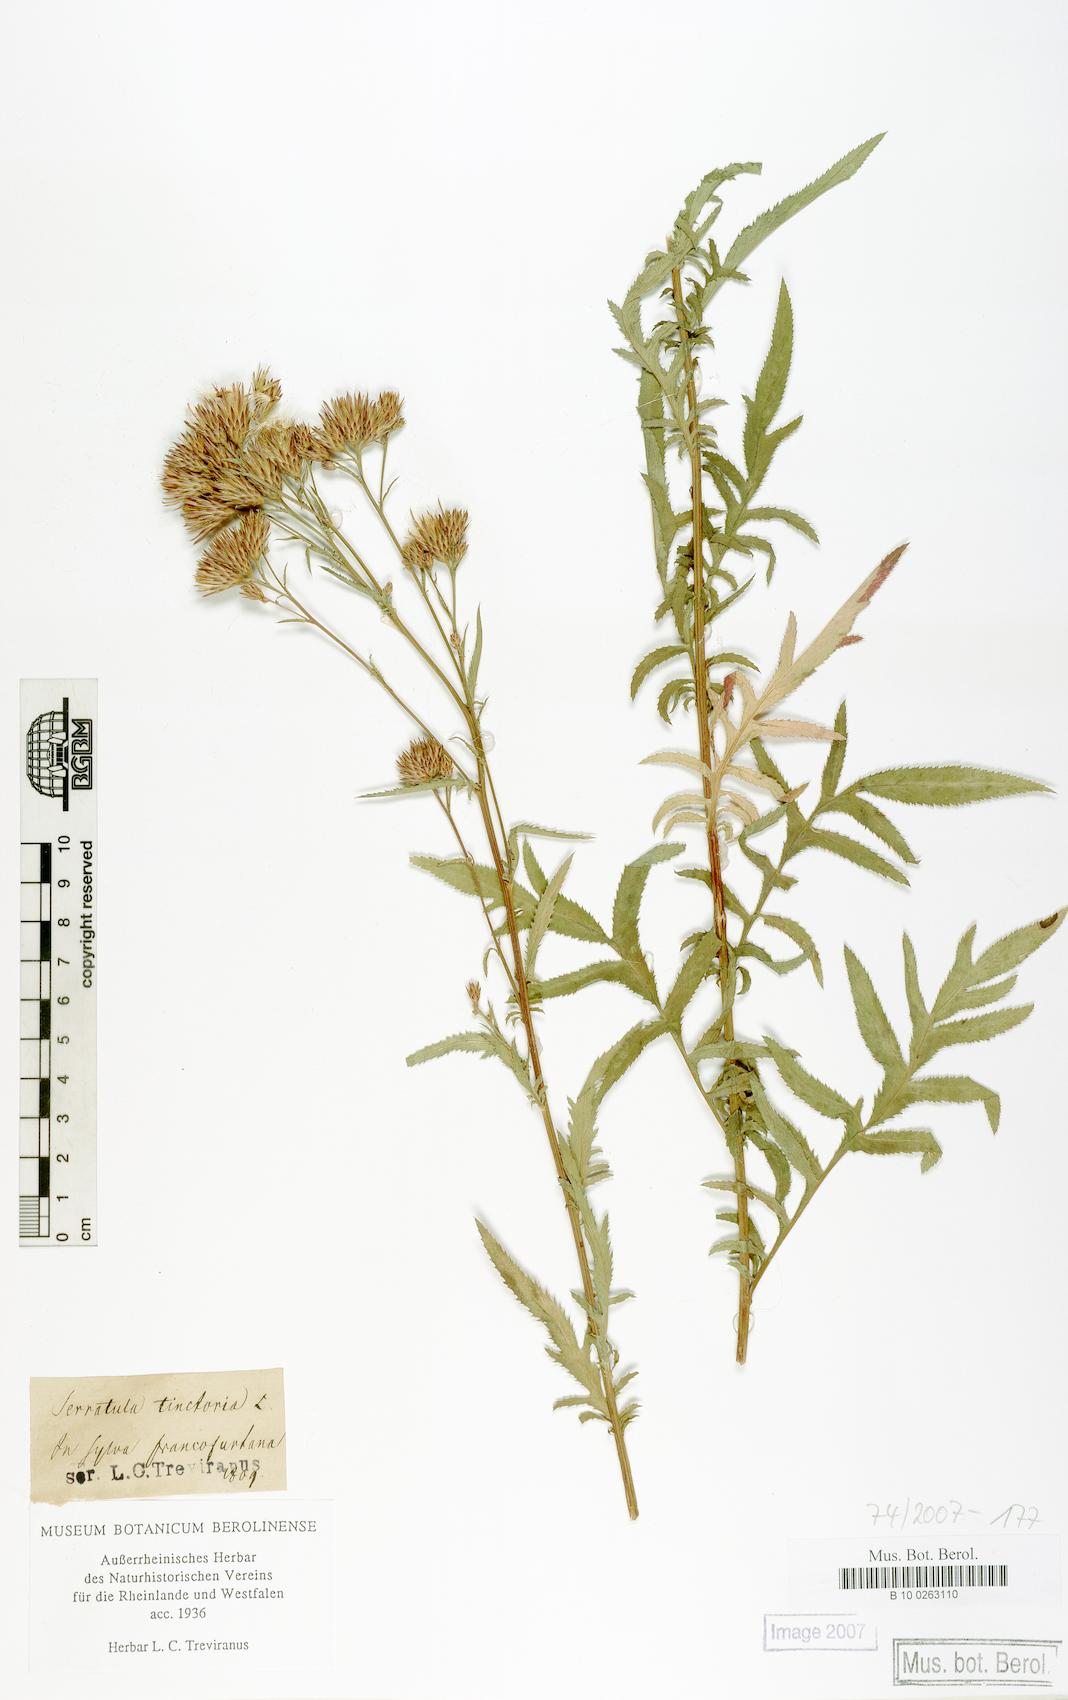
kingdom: Plantae
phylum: Tracheophyta
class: Magnoliopsida
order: Asterales
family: Asteraceae
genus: Serratula
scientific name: Serratula tinctoria
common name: Saw-wort
